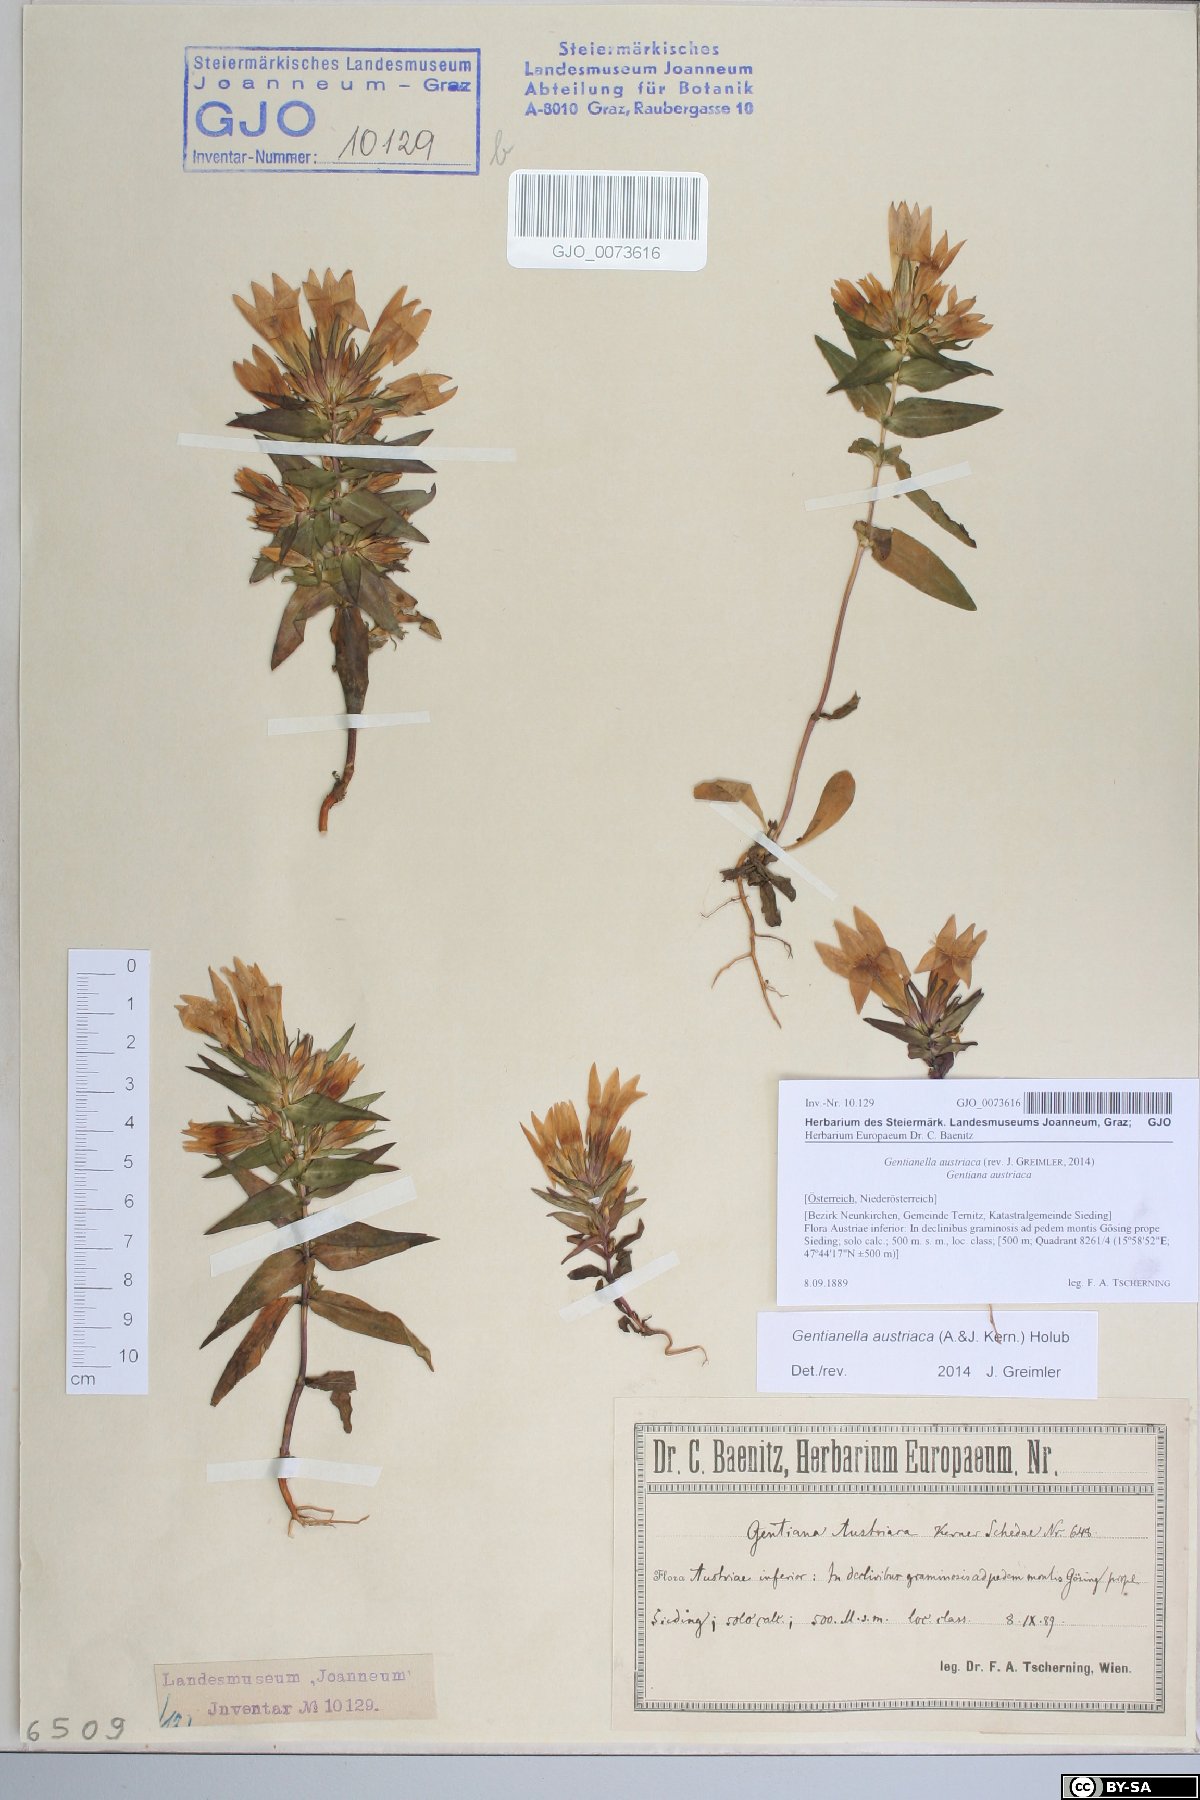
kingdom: Plantae
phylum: Tracheophyta
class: Magnoliopsida
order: Gentianales
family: Gentianaceae
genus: Gentianella
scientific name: Gentianella austriaca
